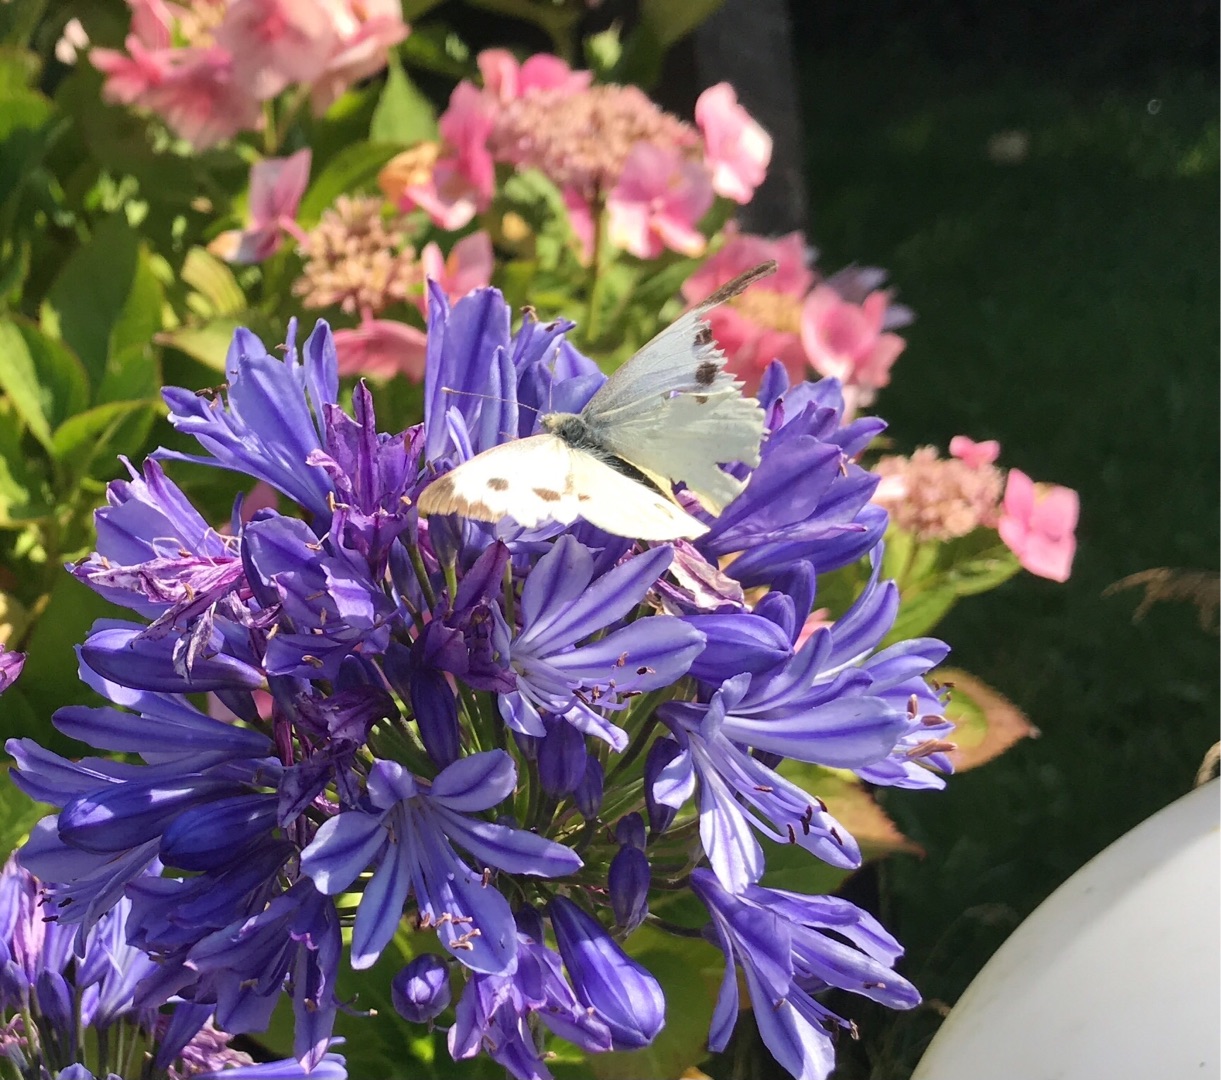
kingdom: Animalia
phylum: Arthropoda
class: Insecta
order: Lepidoptera
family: Pieridae
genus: Pieris
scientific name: Pieris brassicae
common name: Stor kålsommerfugl
